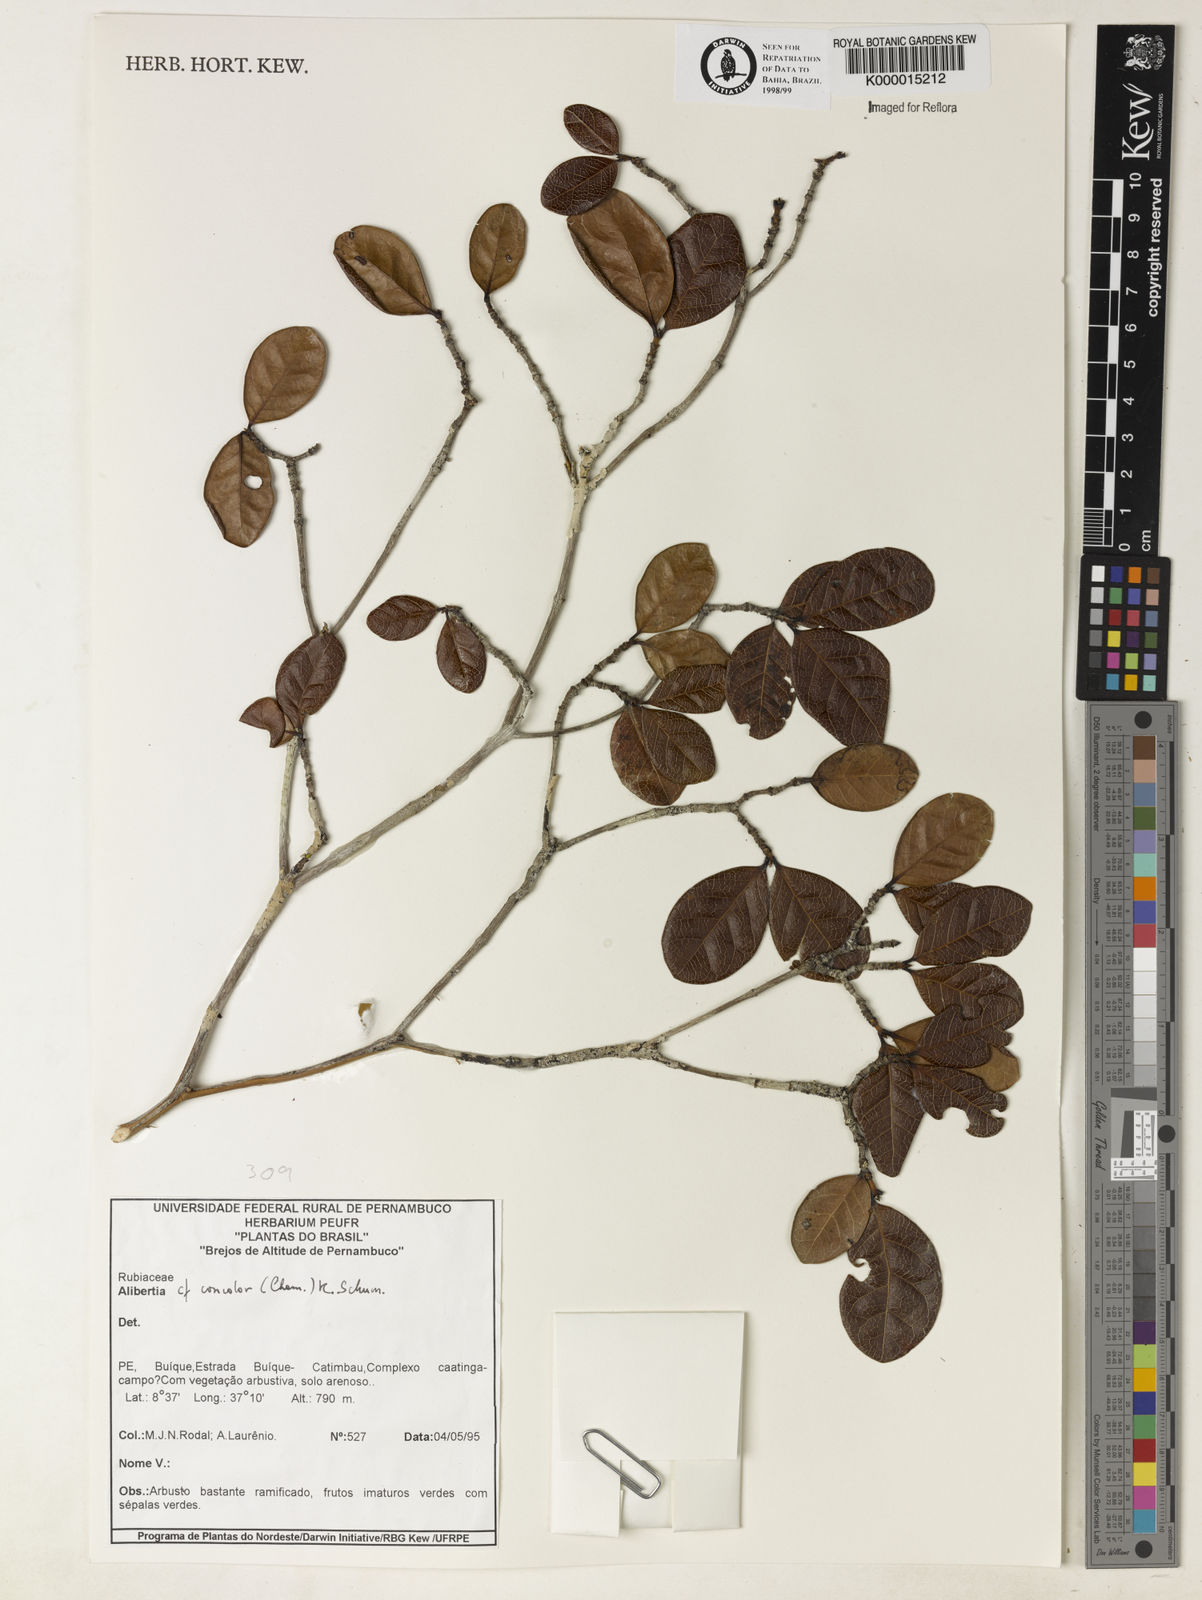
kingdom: Plantae
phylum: Tracheophyta
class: Magnoliopsida
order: Gentianales
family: Rubiaceae
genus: Cordiera
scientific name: Cordiera concolor
